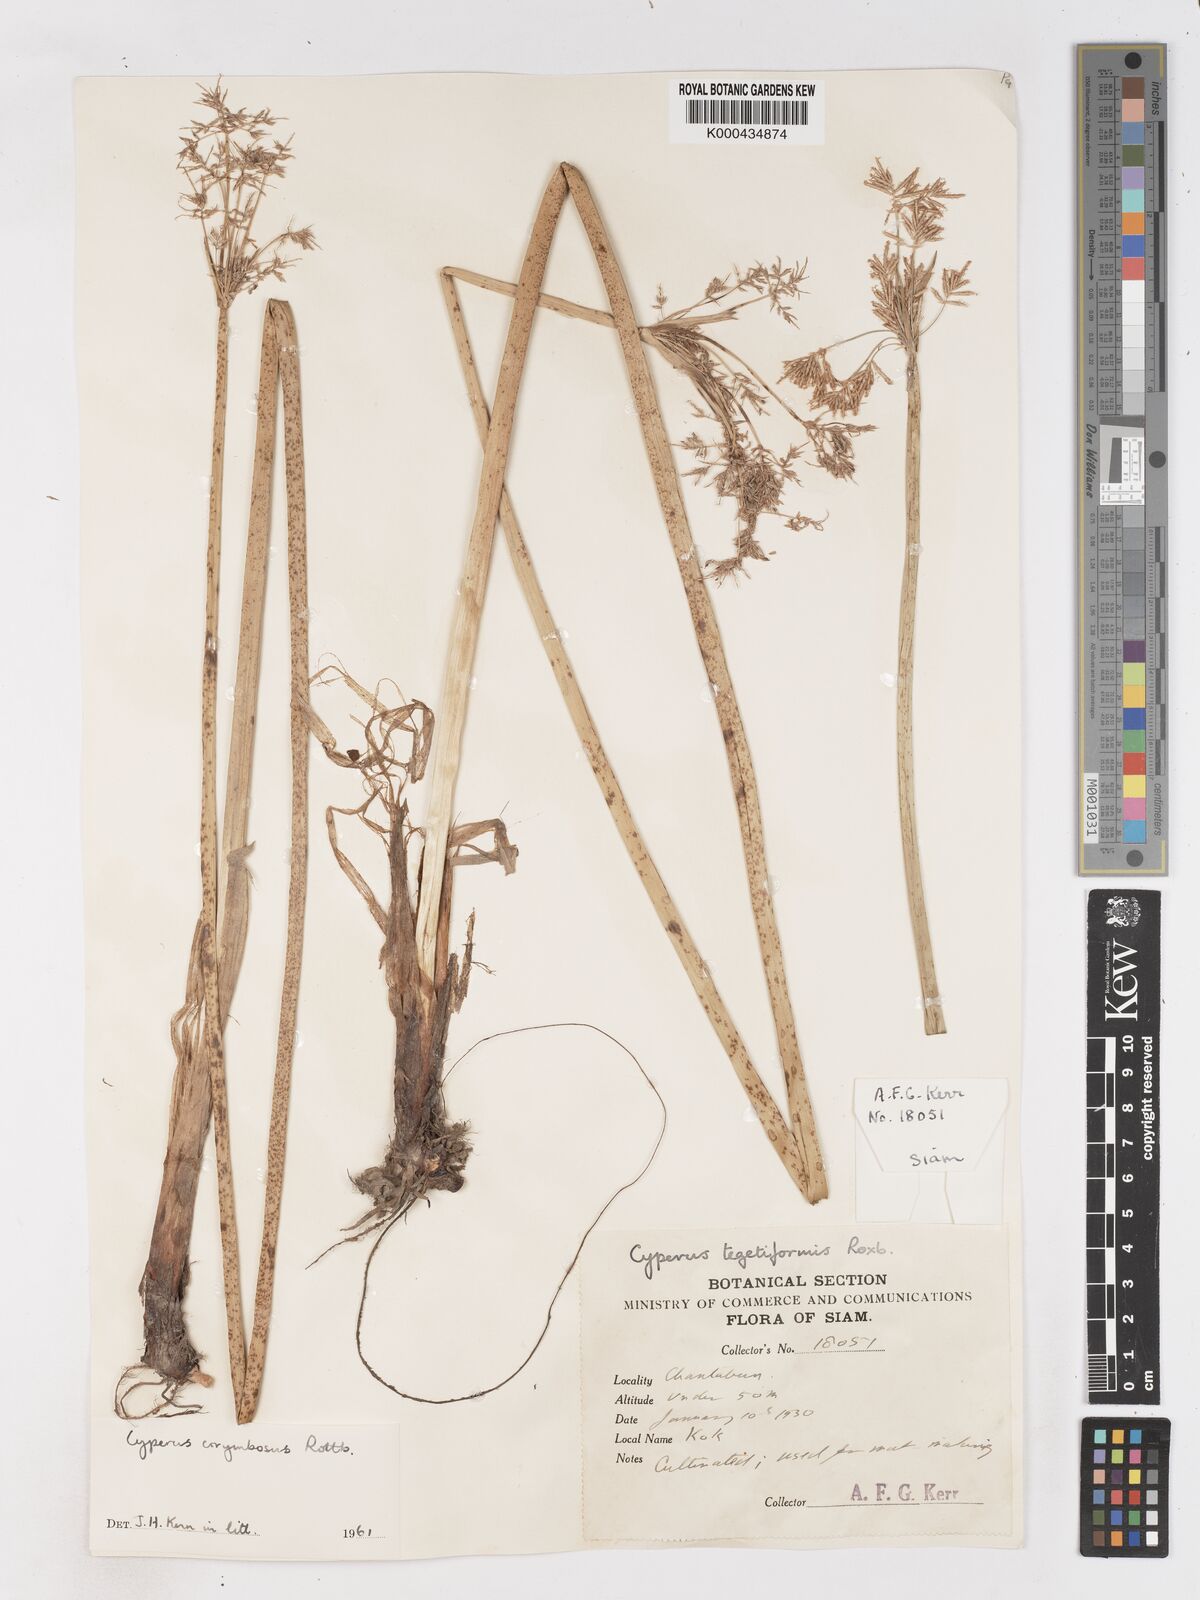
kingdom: Plantae
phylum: Tracheophyta
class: Liliopsida
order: Poales
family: Cyperaceae
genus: Cyperus
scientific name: Cyperus corymbosus
